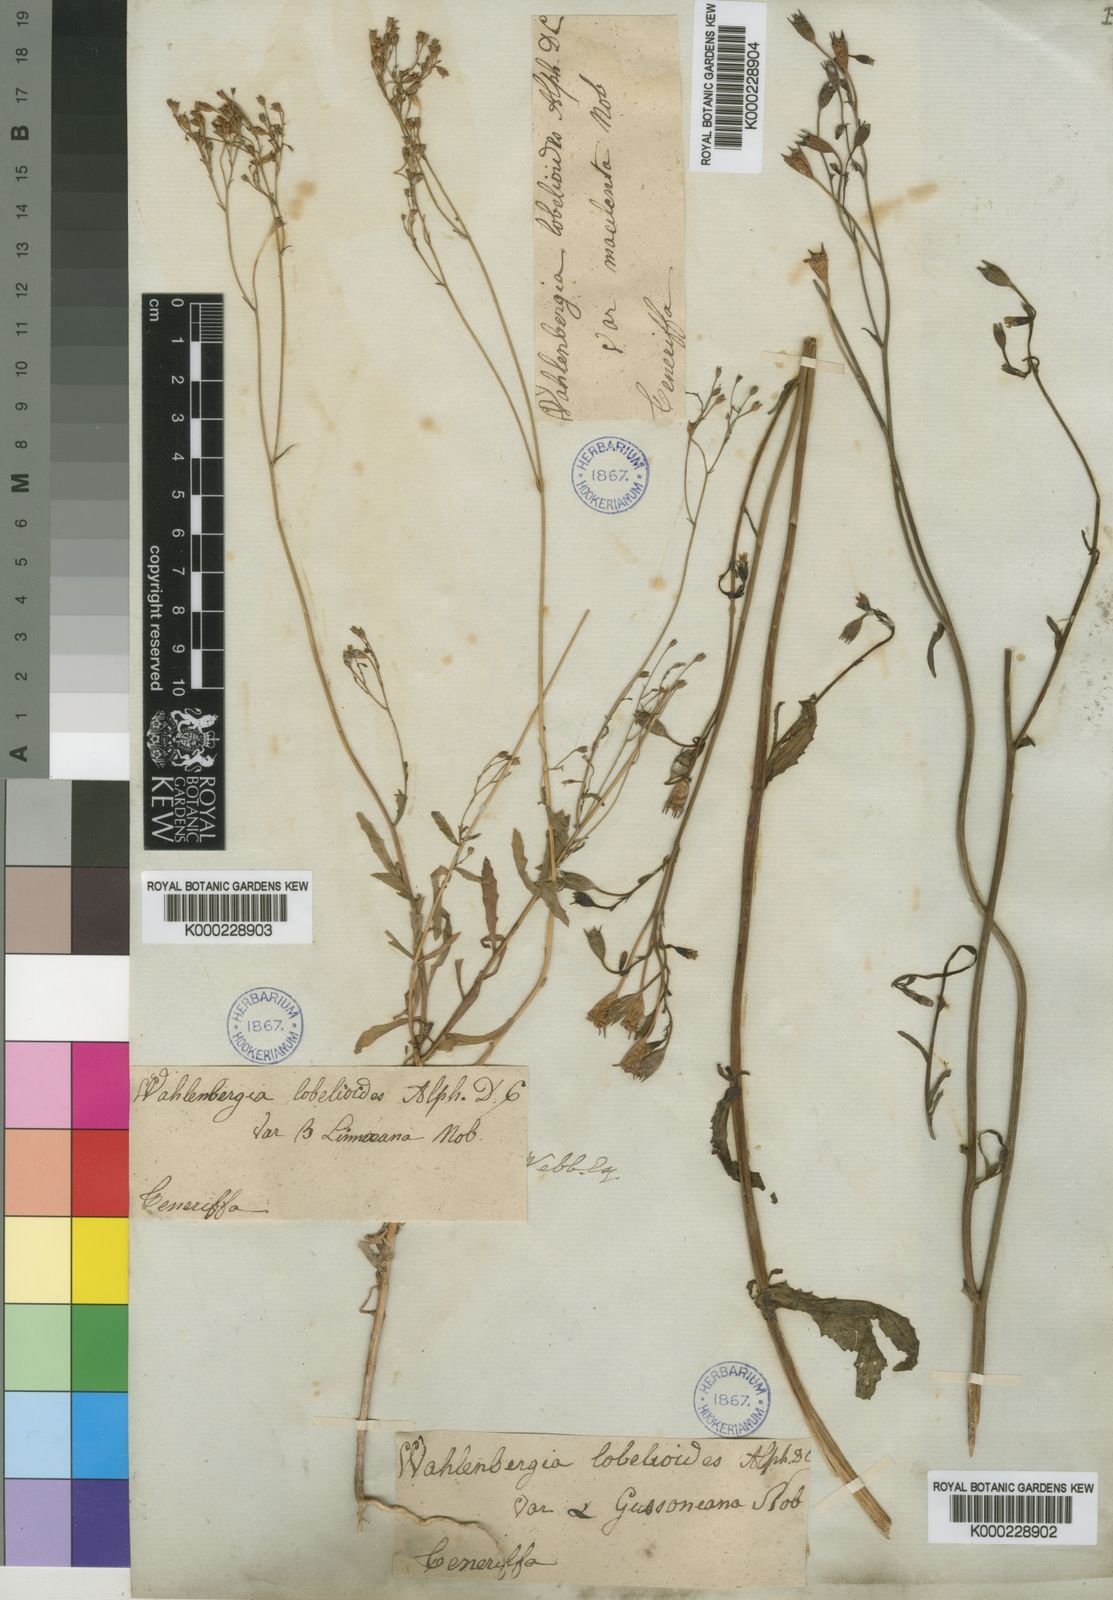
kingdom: Plantae
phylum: Tracheophyta
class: Magnoliopsida
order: Asterales
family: Campanulaceae
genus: Wahlenbergia
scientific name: Wahlenbergia
